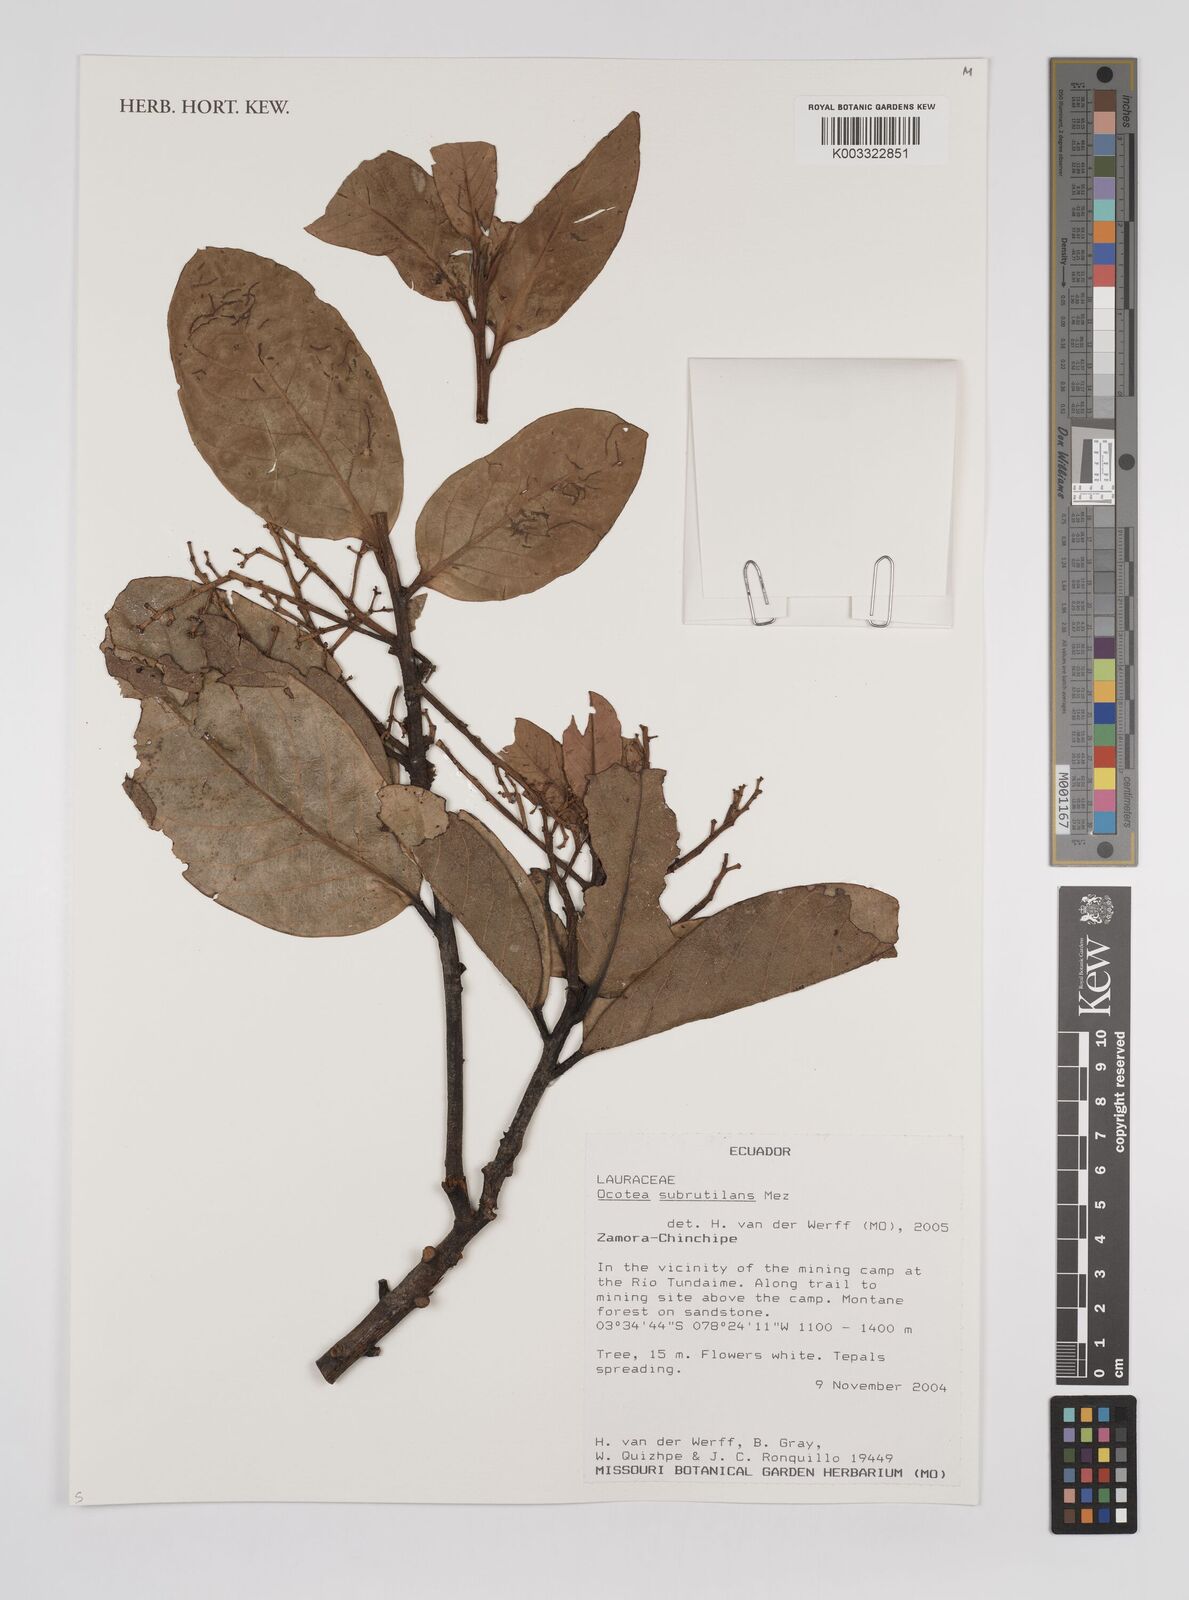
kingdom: Plantae
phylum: Tracheophyta
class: Magnoliopsida
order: Laurales
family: Lauraceae
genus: Ocotea
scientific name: Ocotea subrutilans
